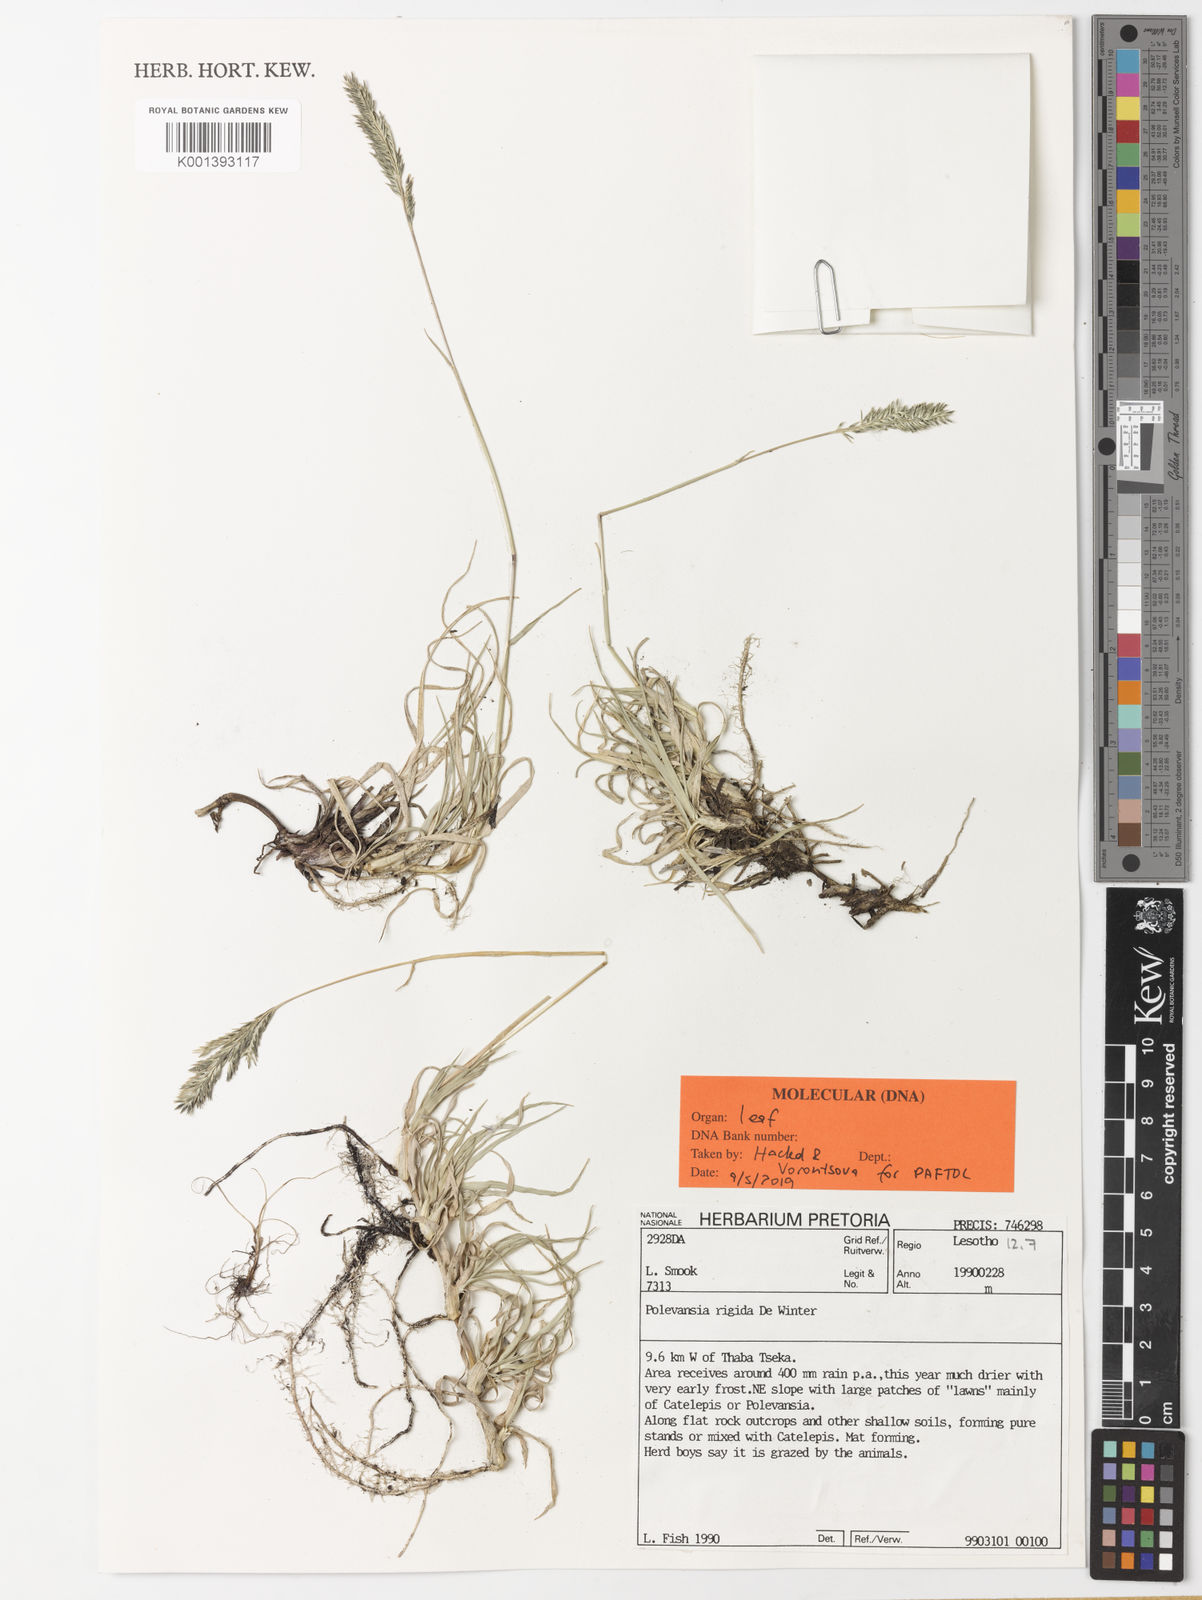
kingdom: Plantae
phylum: Tracheophyta
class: Liliopsida
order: Poales
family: Poaceae
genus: Polevansia
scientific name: Polevansia rigida
